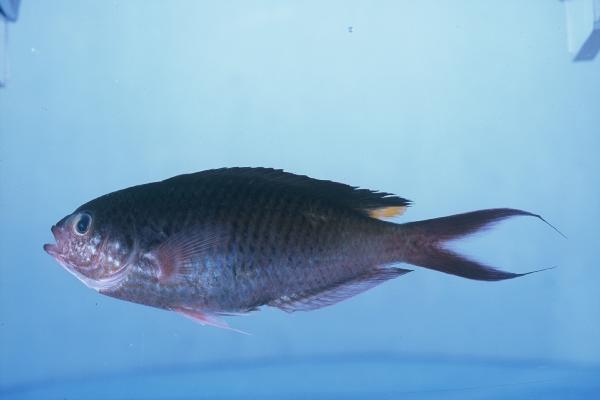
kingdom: Animalia
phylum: Chordata
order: Perciformes
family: Pomacentridae
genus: Lepidozygus
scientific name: Lepidozygus tapeinosoma
